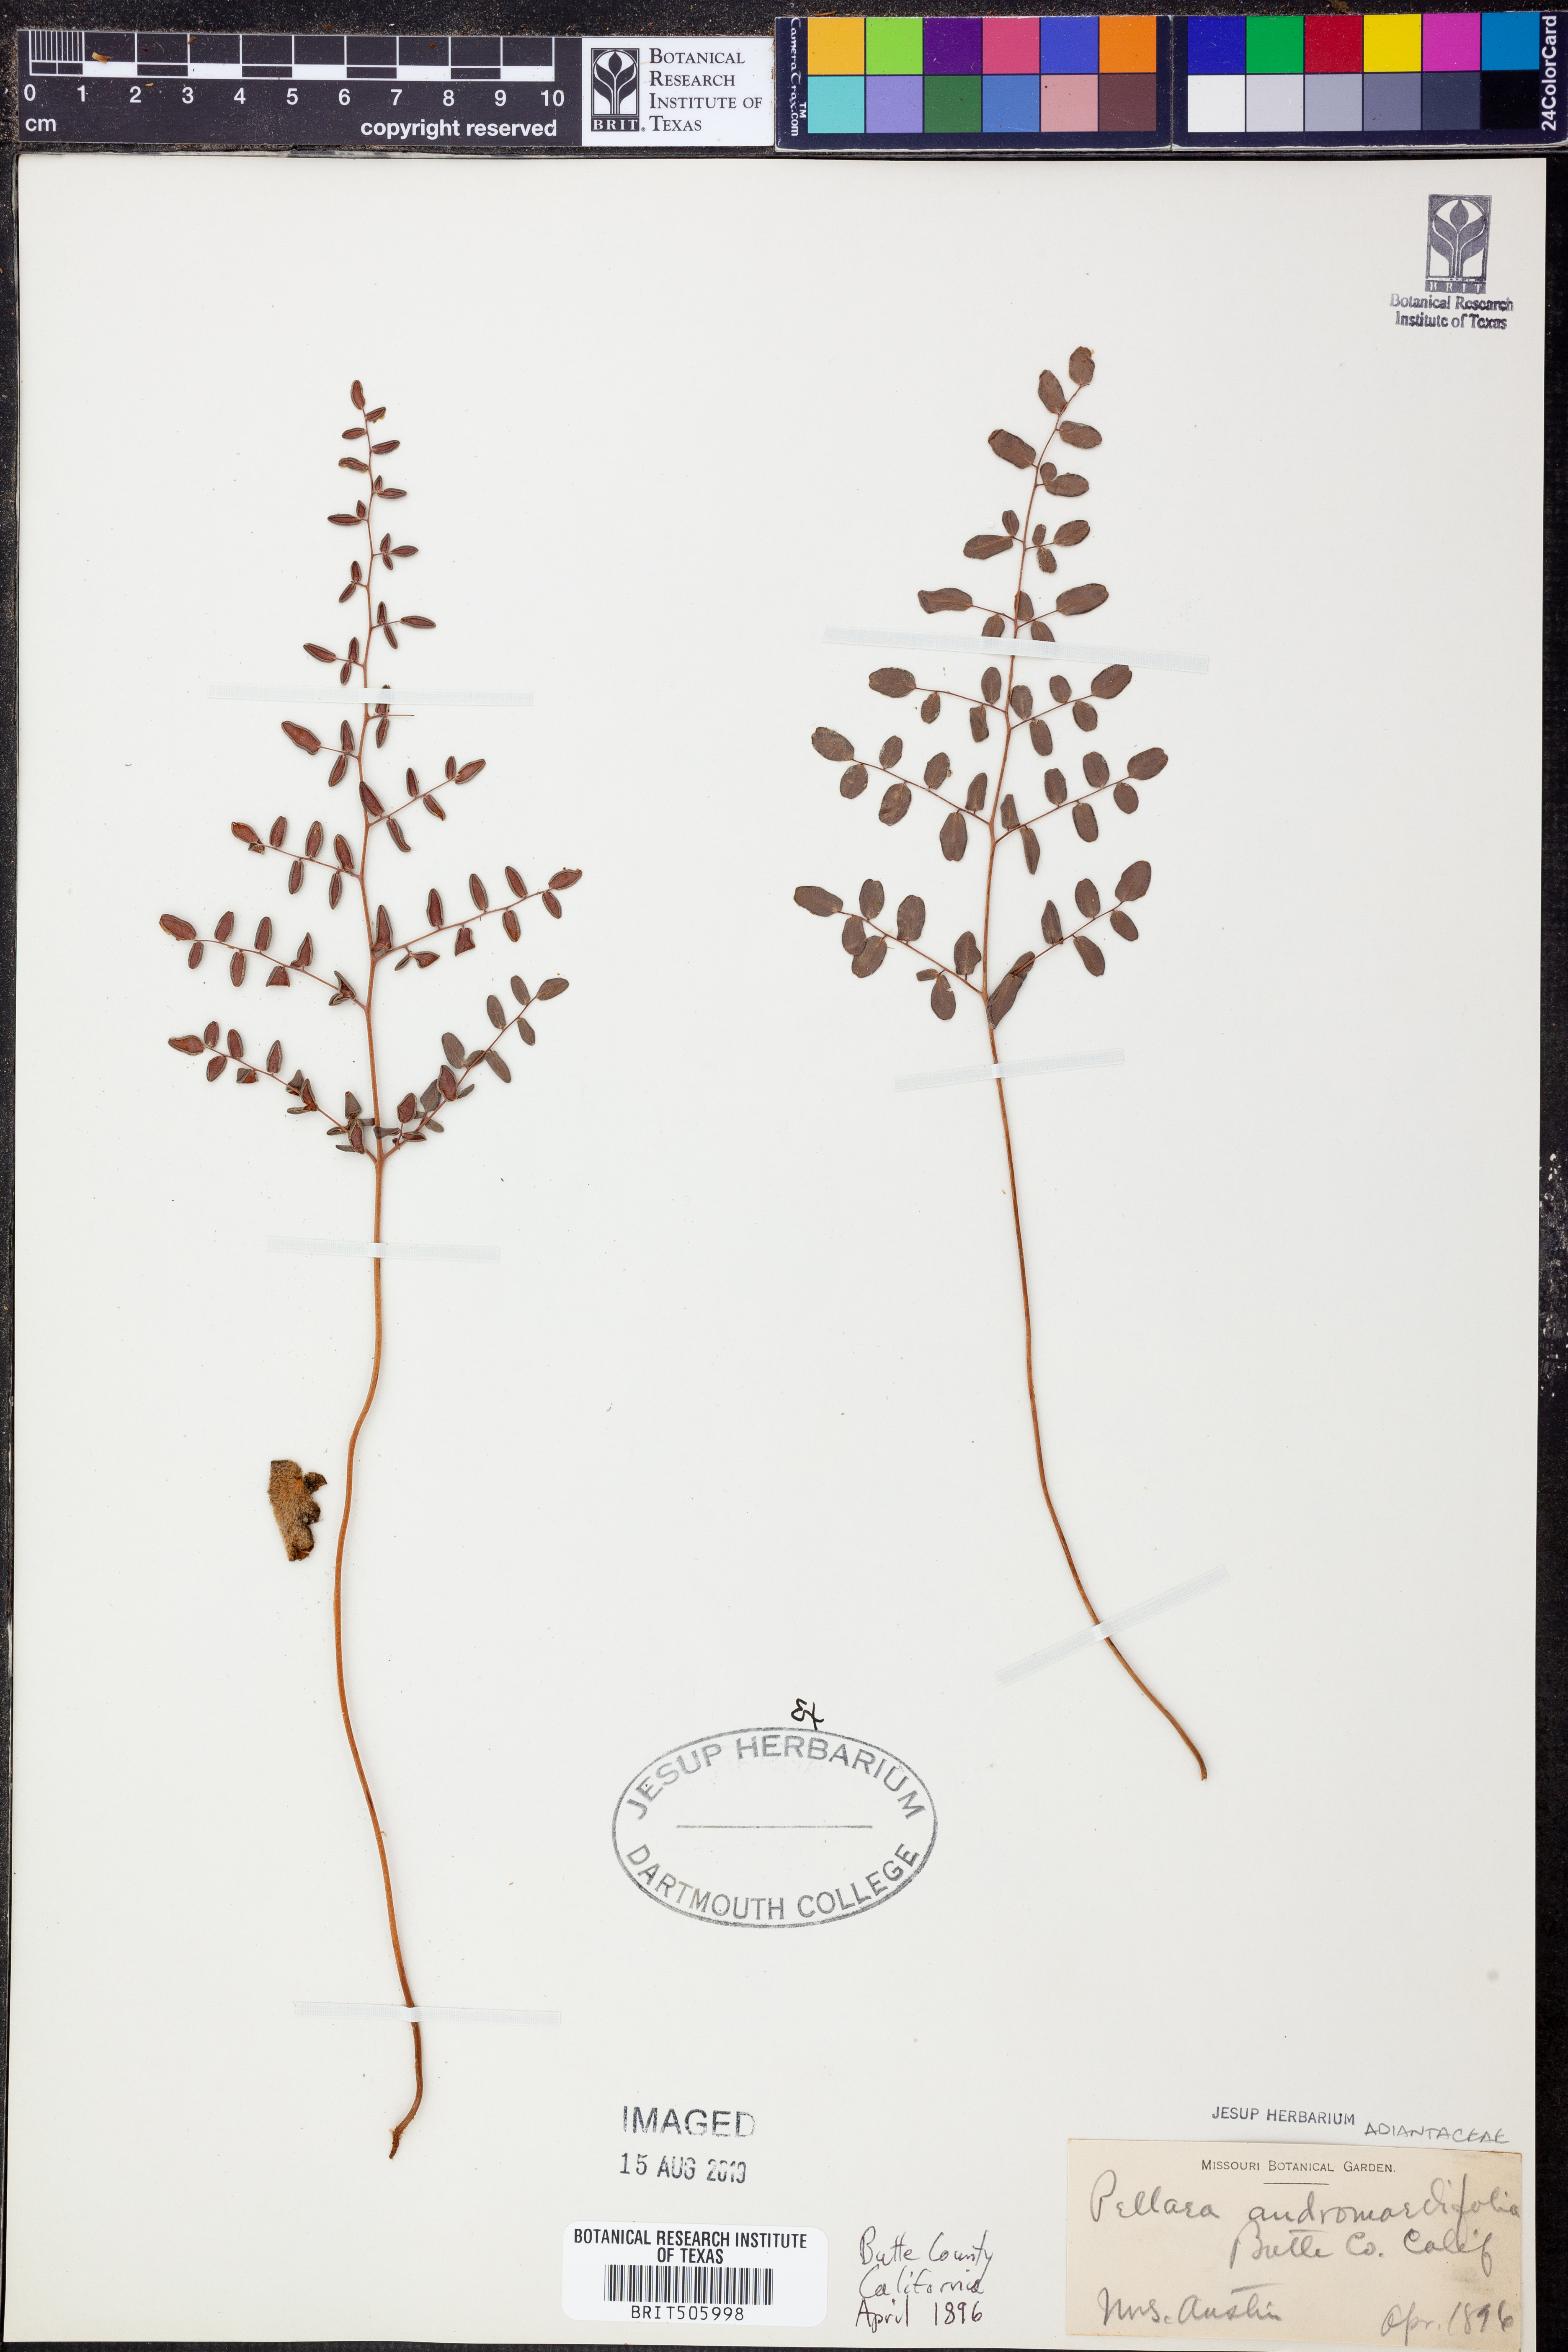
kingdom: Plantae
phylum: Tracheophyta
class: Polypodiopsida
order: Polypodiales
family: Pteridaceae
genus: Pellaea
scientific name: Pellaea andromedifolia
